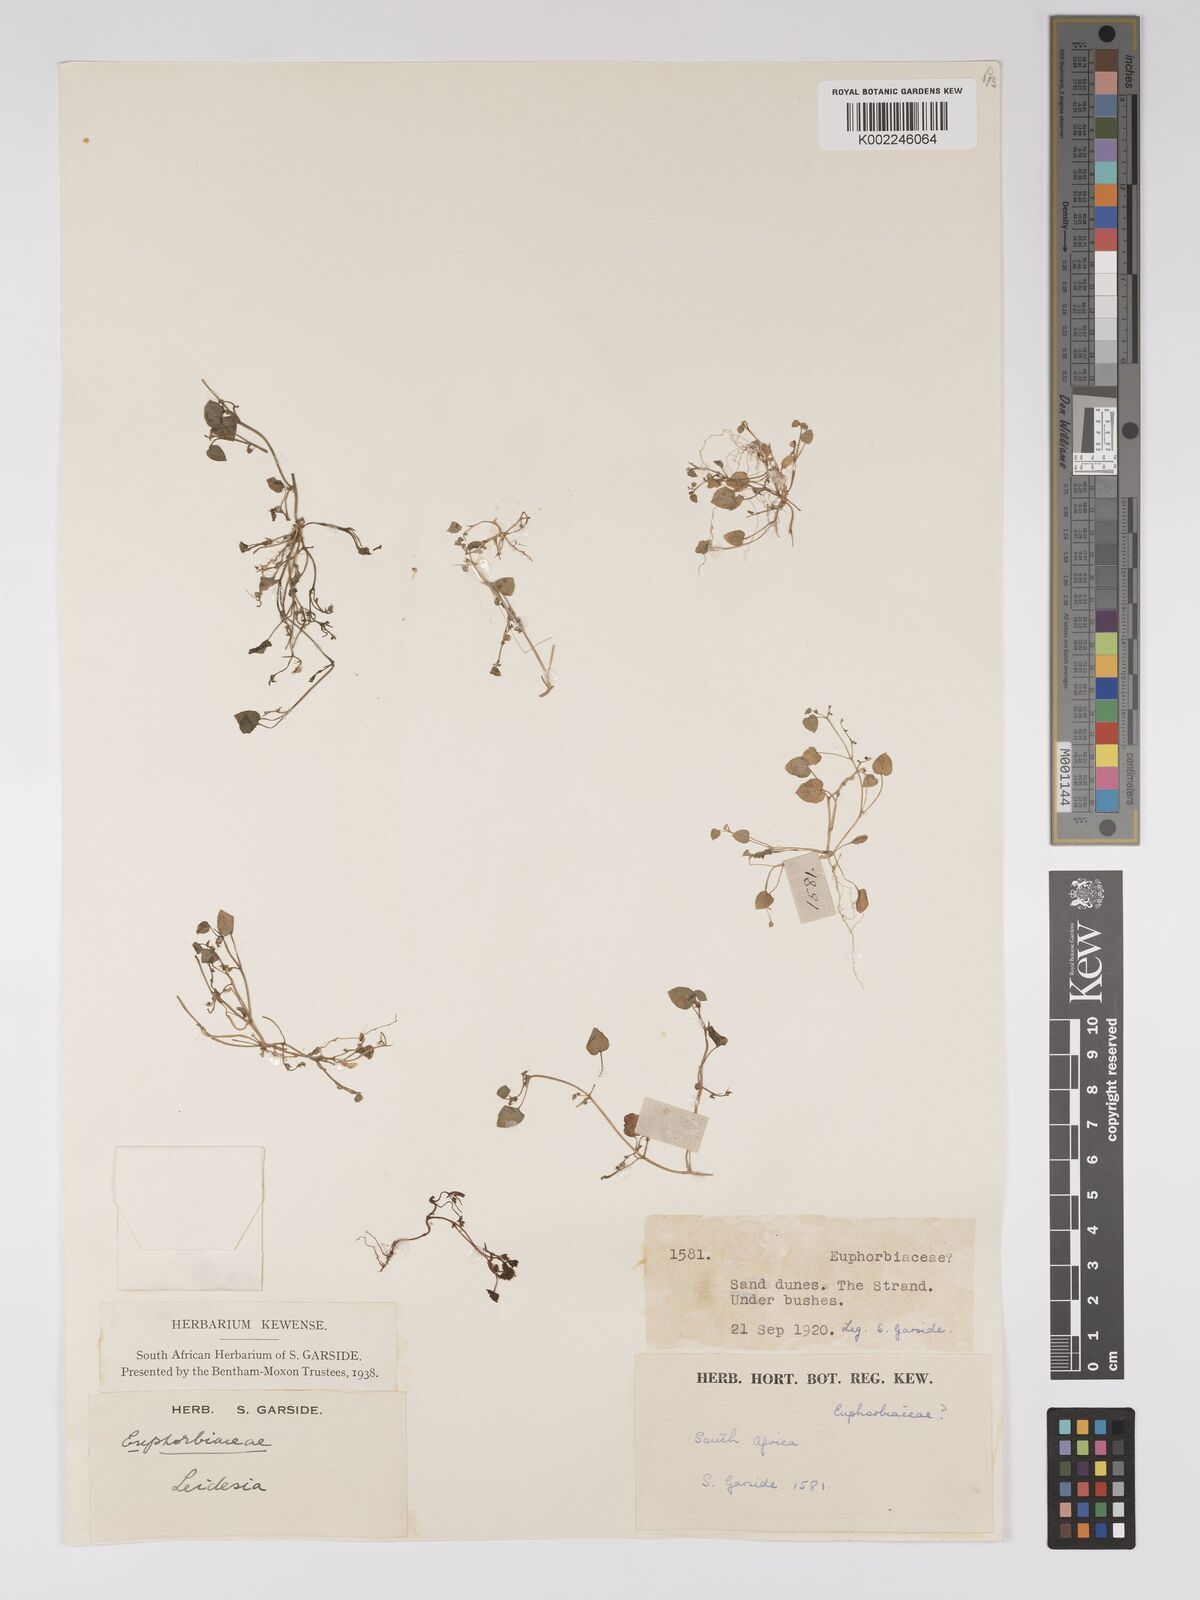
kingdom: Plantae
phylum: Tracheophyta
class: Magnoliopsida
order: Malpighiales
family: Euphorbiaceae
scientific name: Euphorbiaceae
